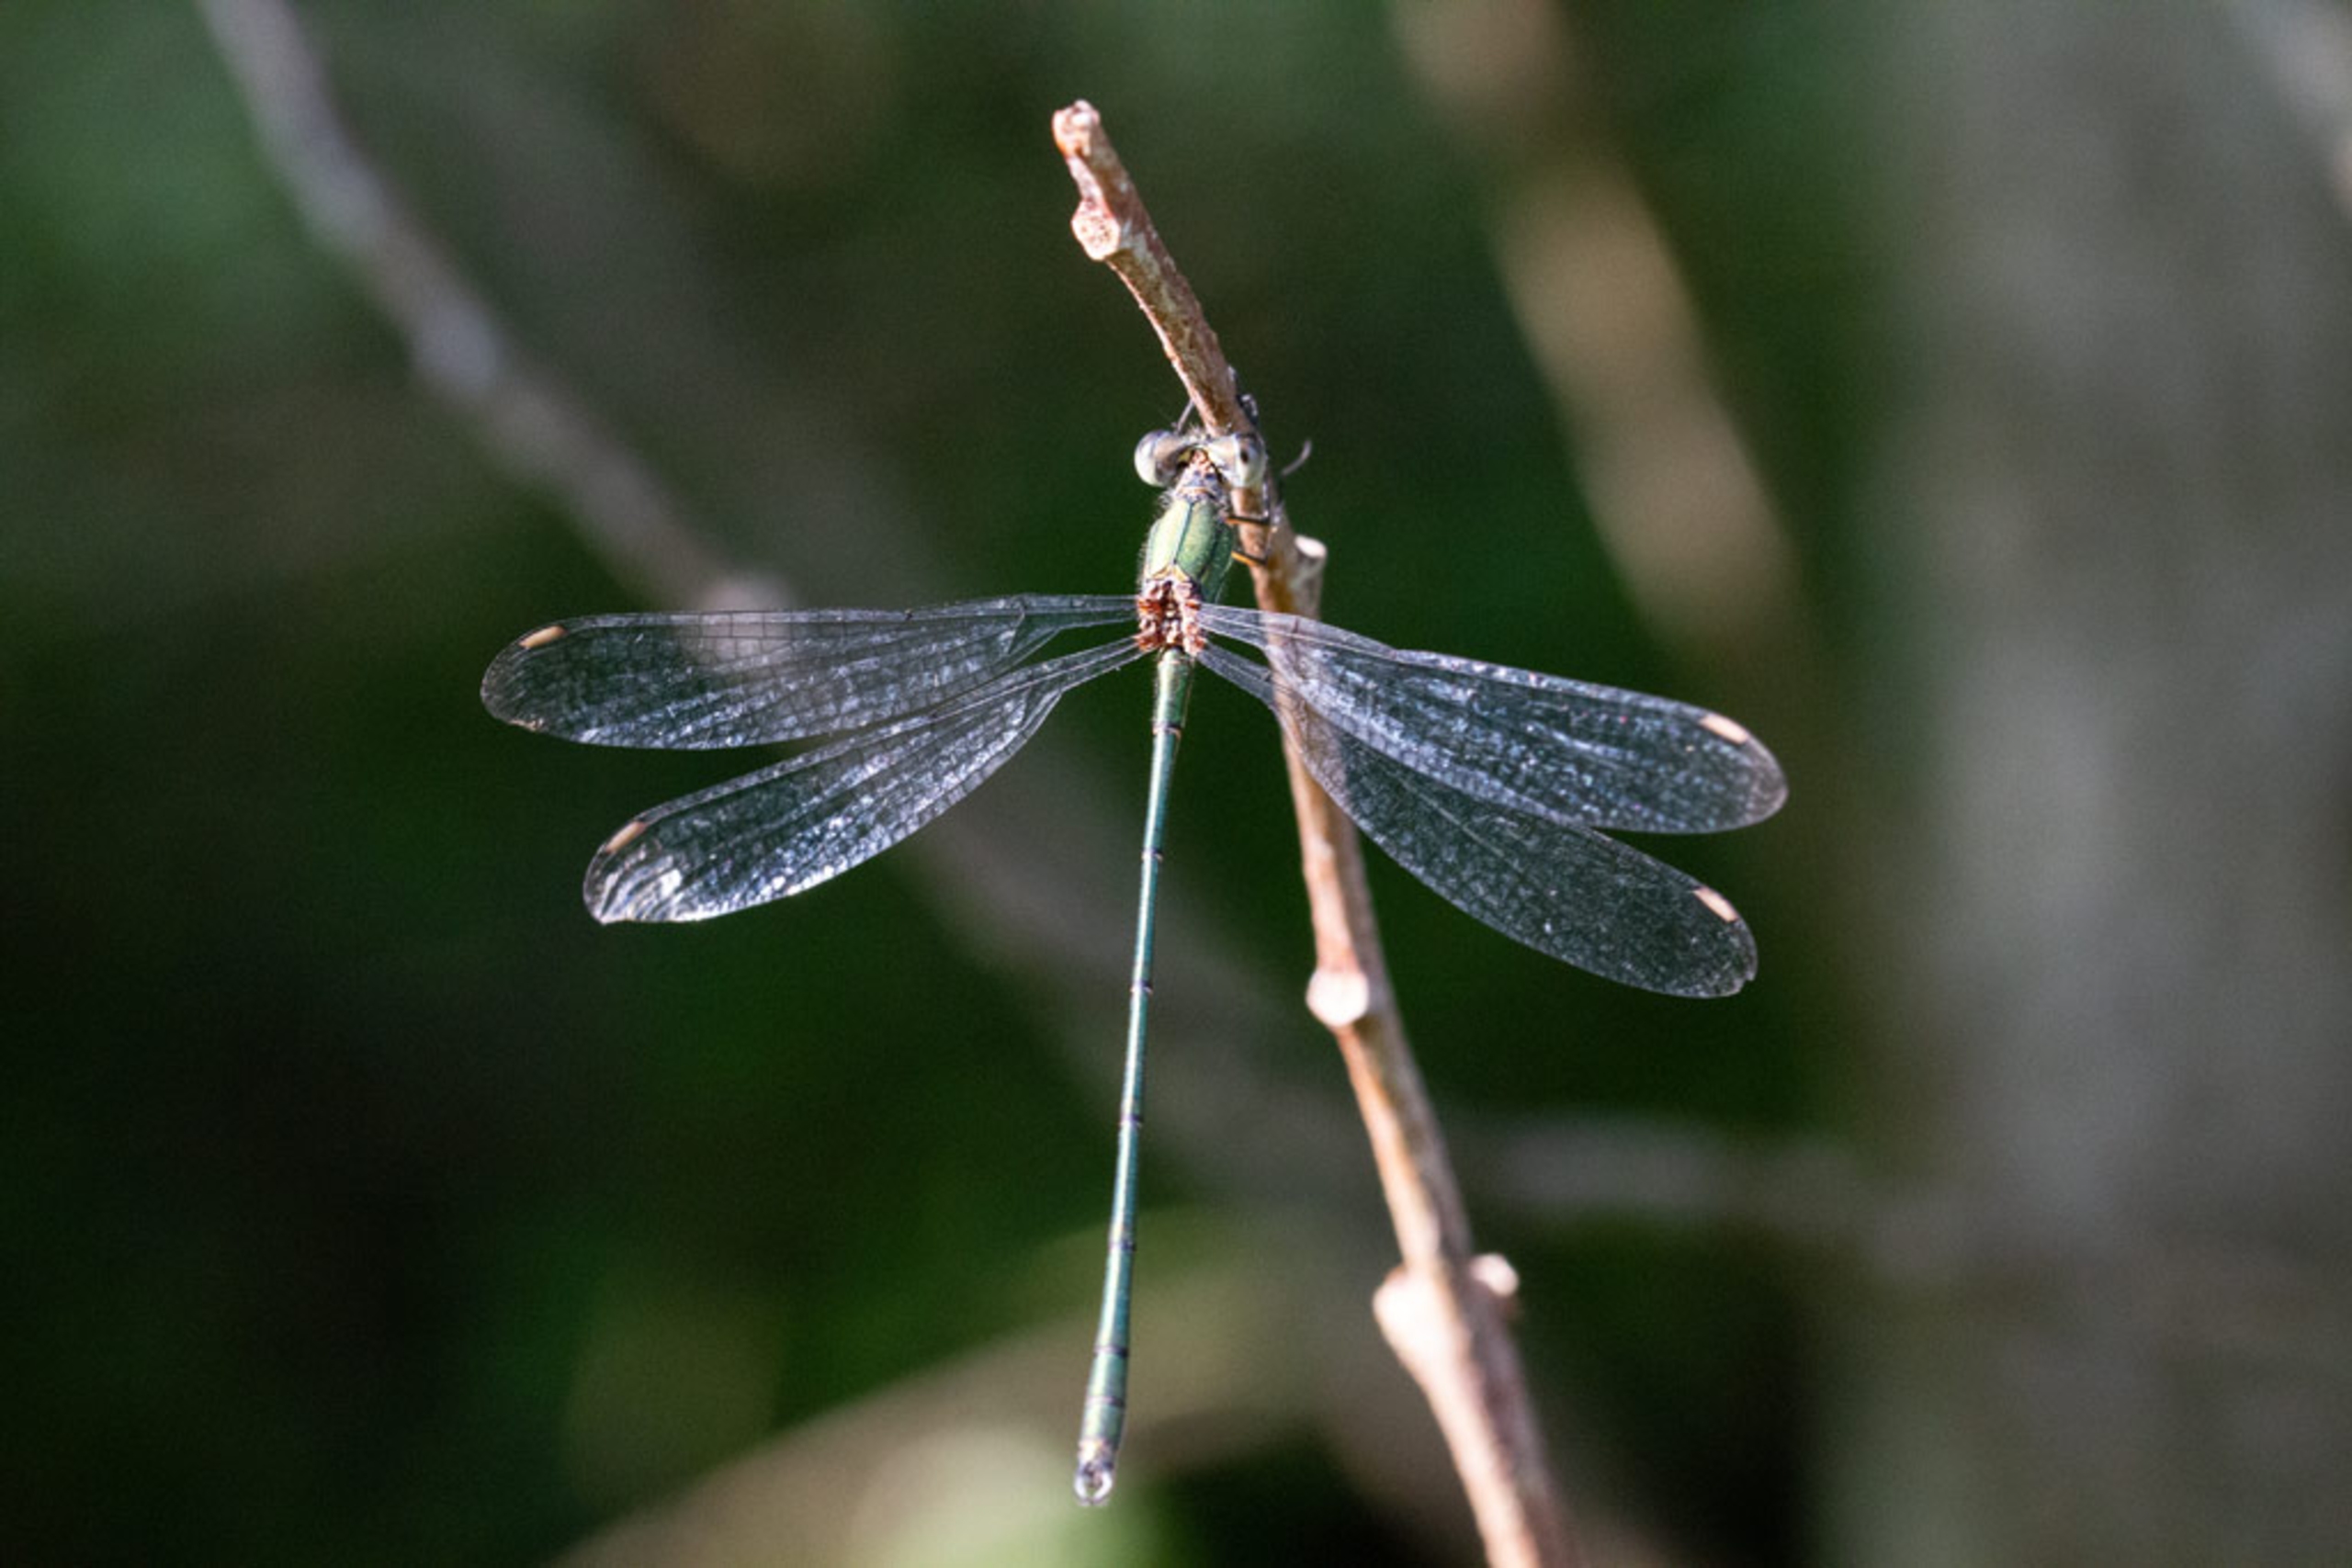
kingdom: Animalia
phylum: Arthropoda
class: Insecta
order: Odonata
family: Lestidae
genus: Chalcolestes
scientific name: Chalcolestes viridis
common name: Grøn kobbervandnymfe
